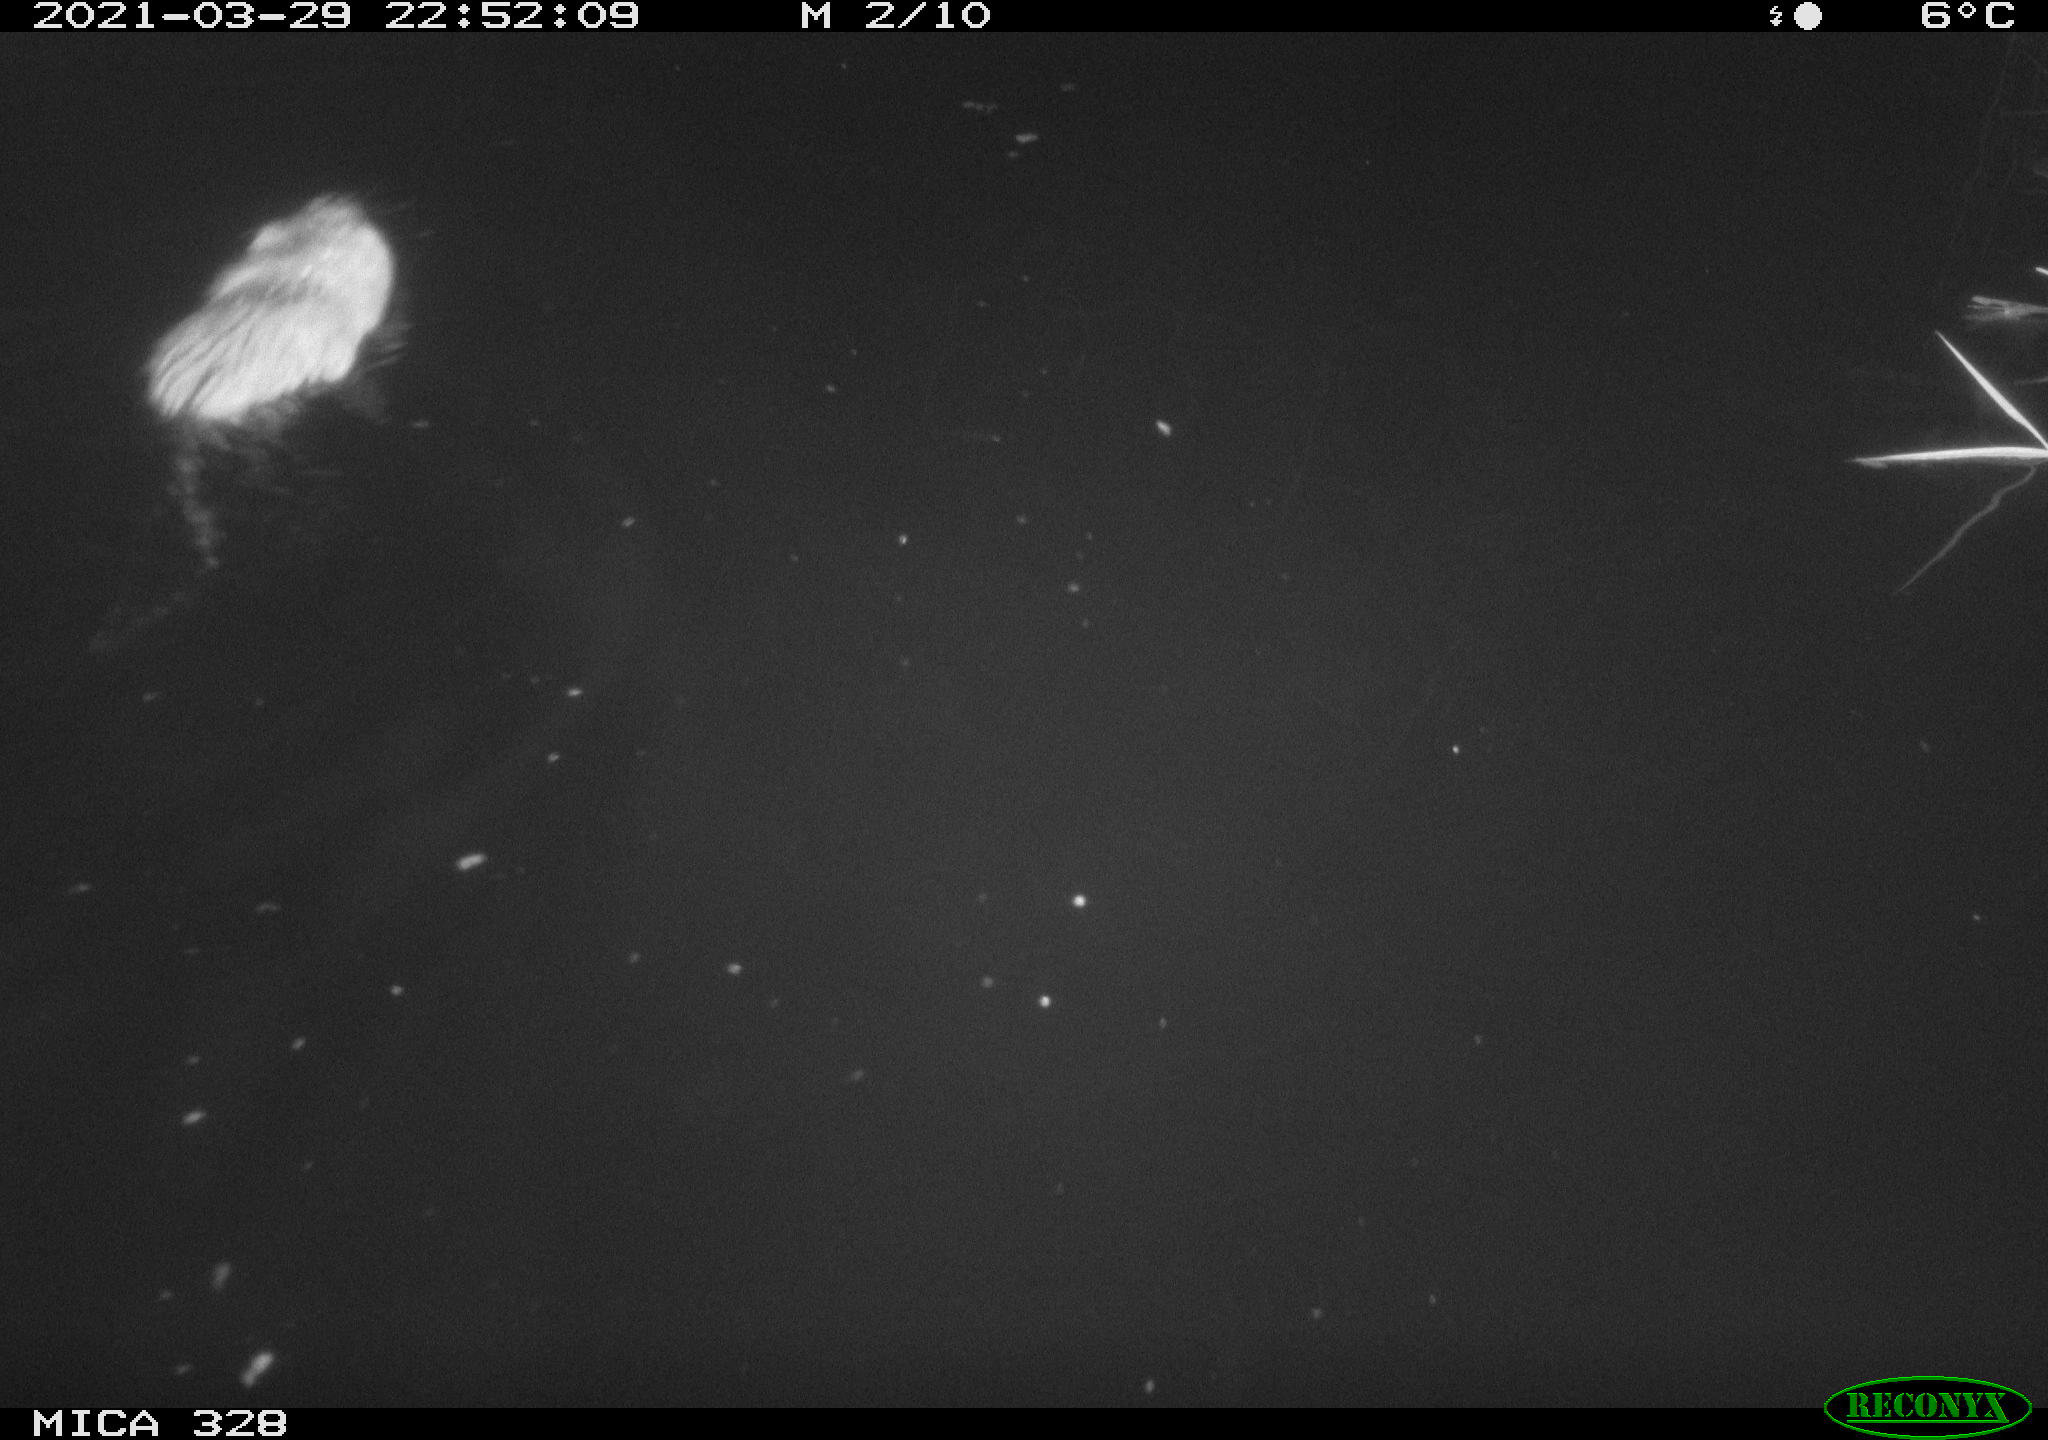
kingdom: Animalia
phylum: Chordata
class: Mammalia
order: Rodentia
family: Cricetidae
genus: Ondatra
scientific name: Ondatra zibethicus
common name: Muskrat
